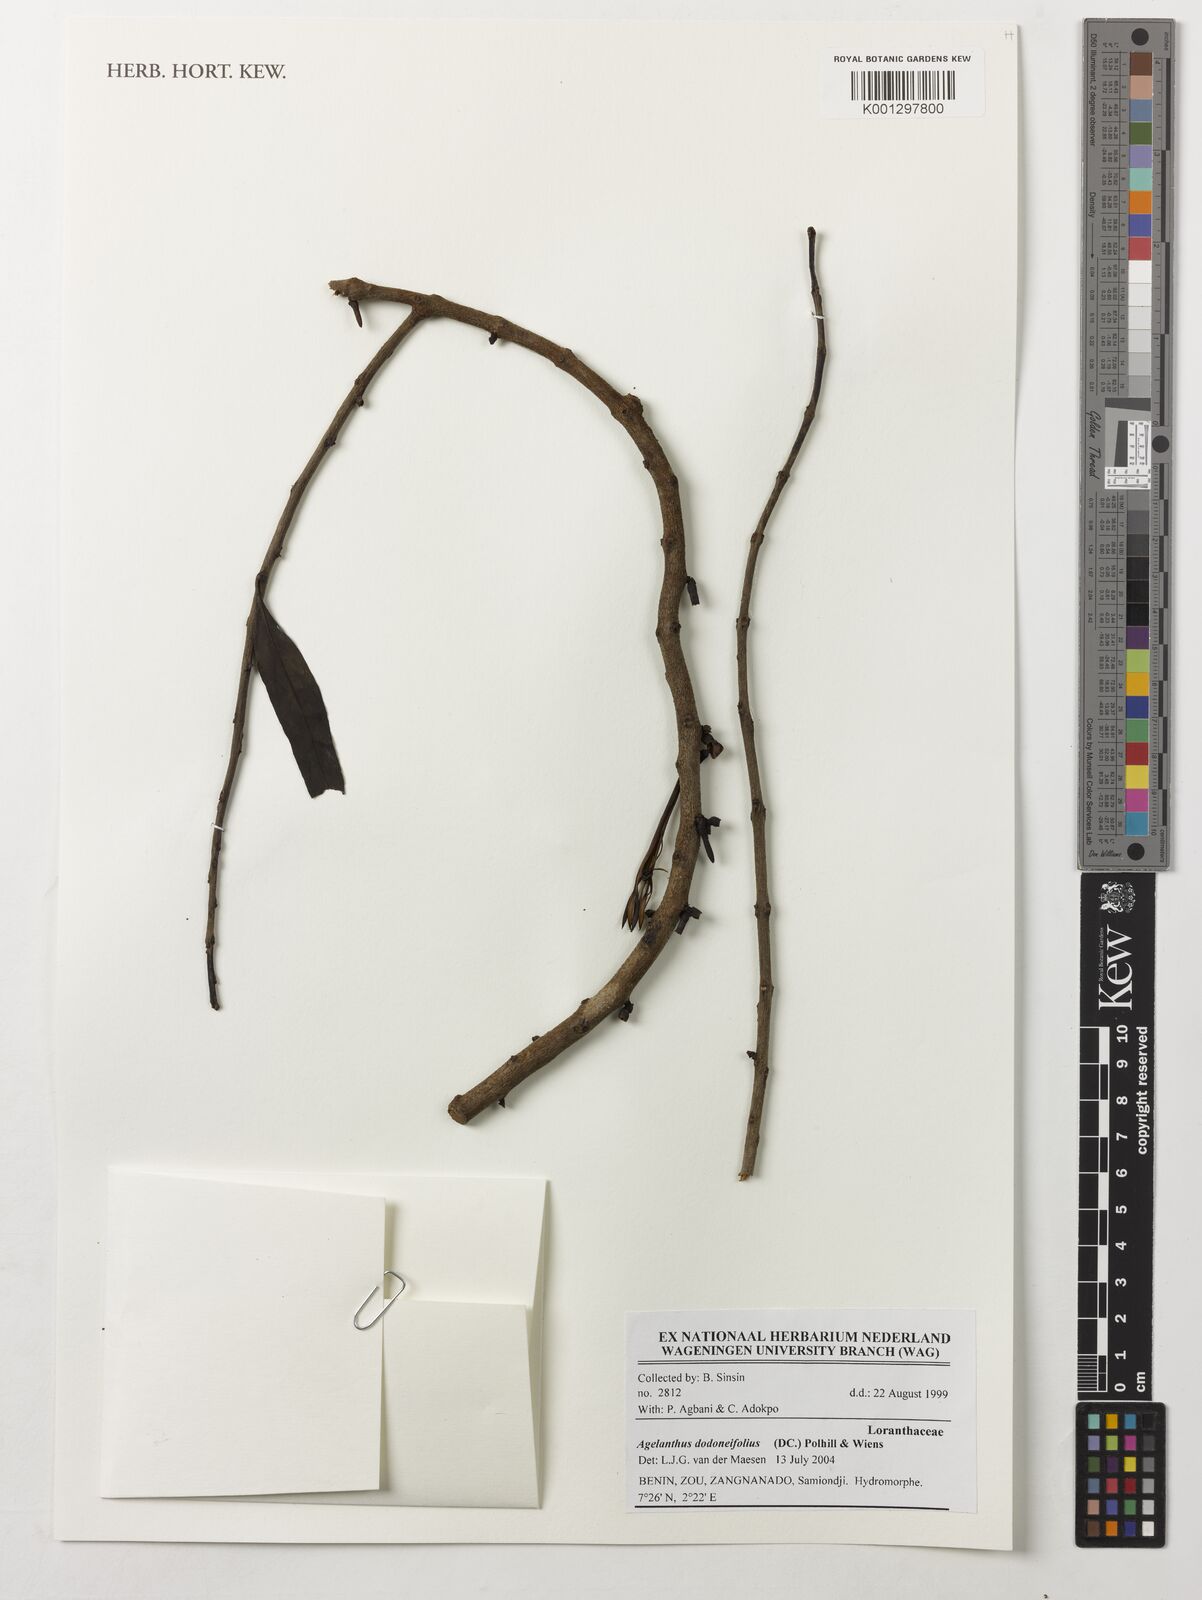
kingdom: Plantae
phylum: Tracheophyta
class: Magnoliopsida
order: Santalales
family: Loranthaceae
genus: Agelanthus
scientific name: Agelanthus dodoneifolius
